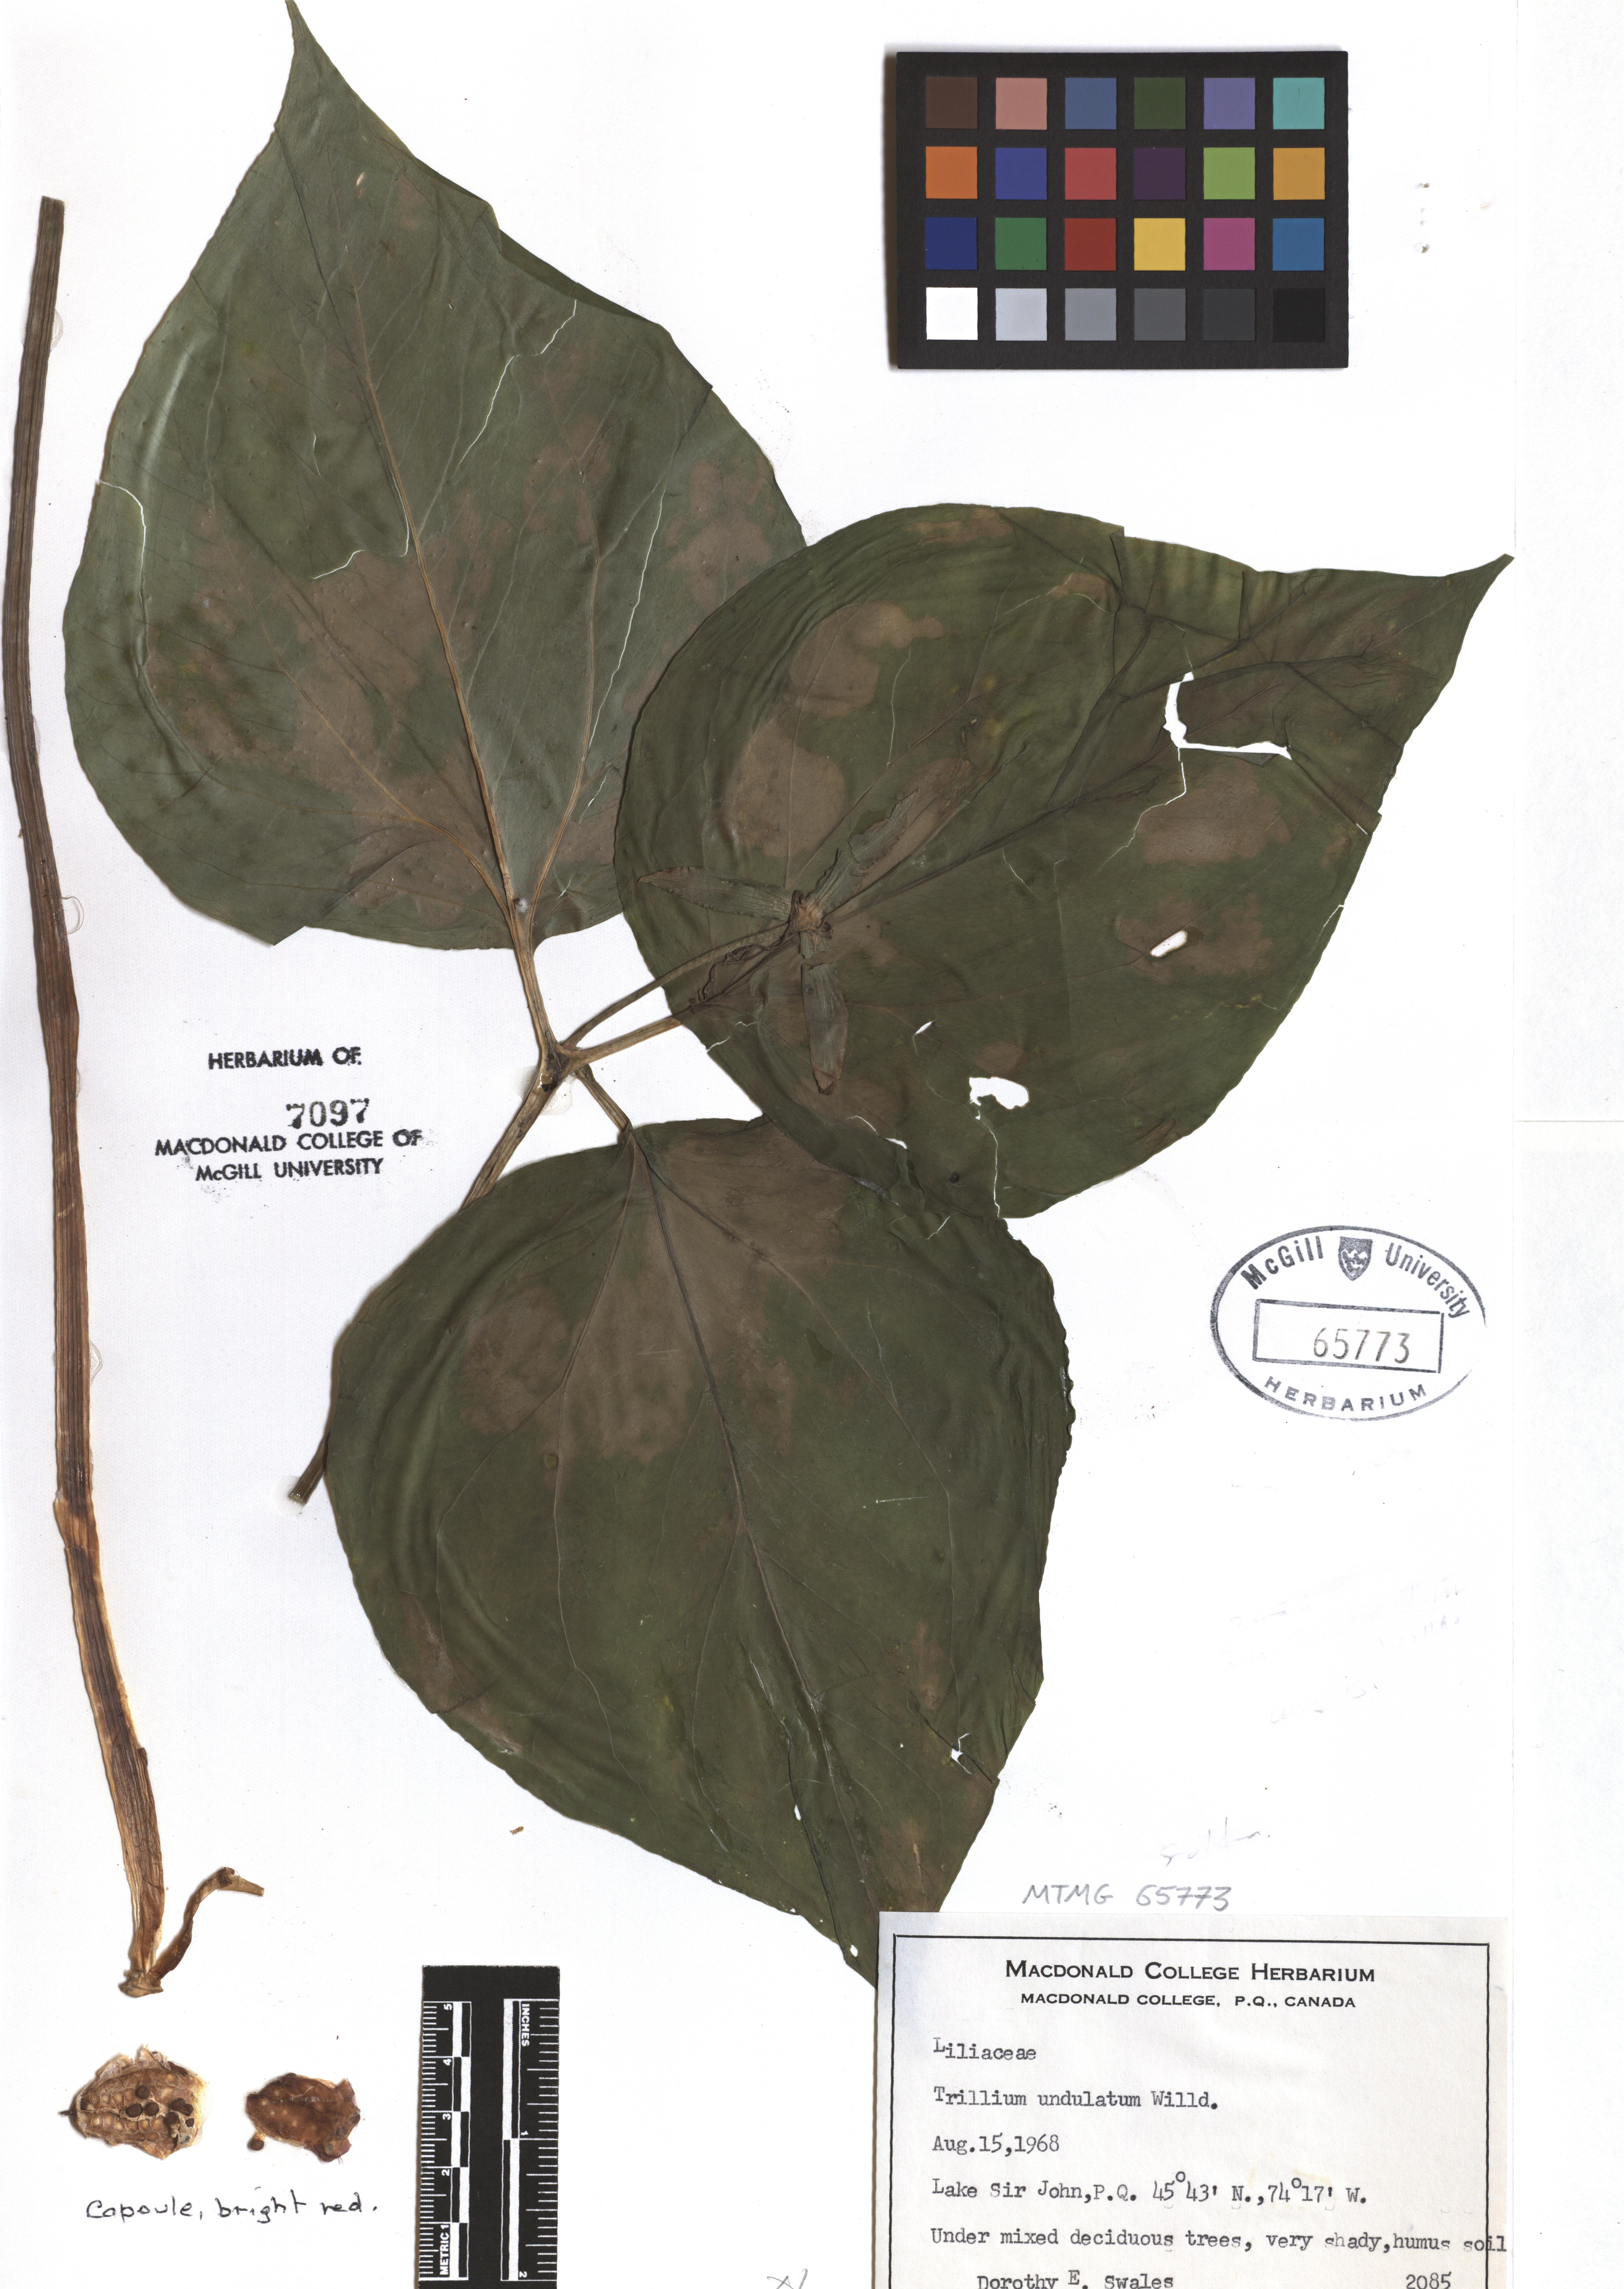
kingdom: Plantae
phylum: Tracheophyta
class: Liliopsida
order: Liliales
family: Melanthiaceae
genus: Trillium
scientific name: Trillium undulatum
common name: Paint trillium
